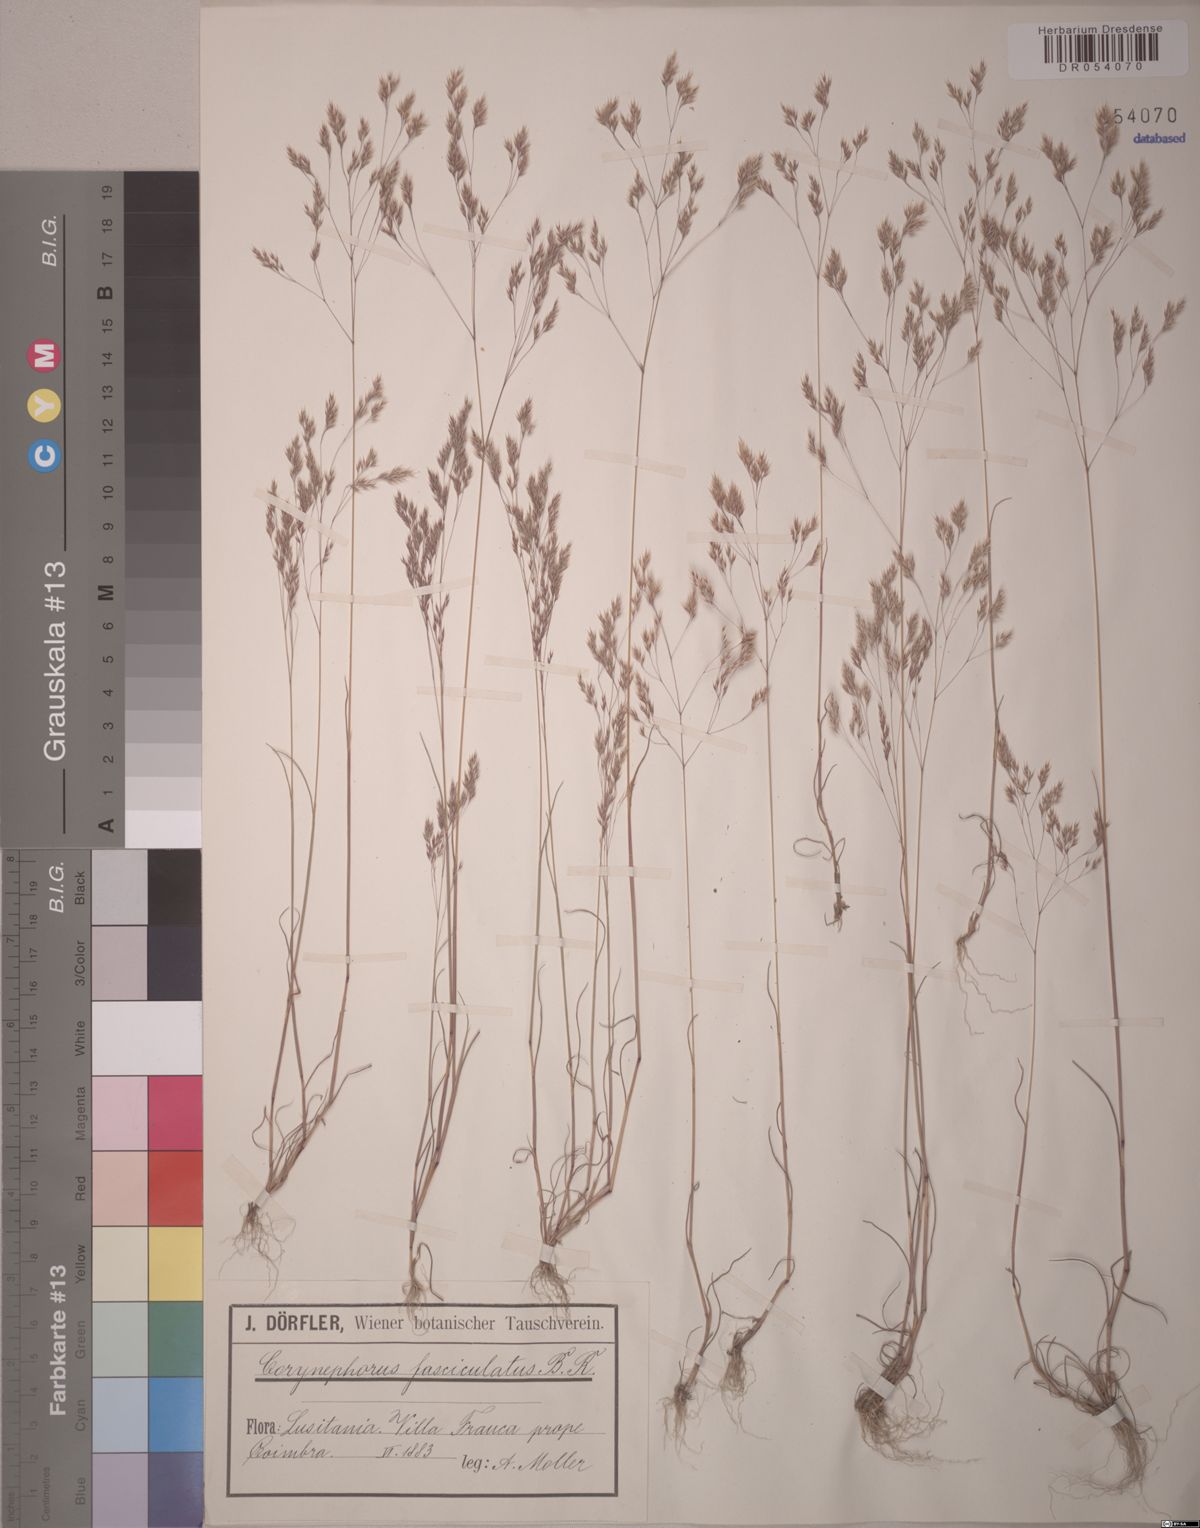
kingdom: Plantae
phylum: Tracheophyta
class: Liliopsida
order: Poales
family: Poaceae
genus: Corynephorus
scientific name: Corynephorus fasciculatus
